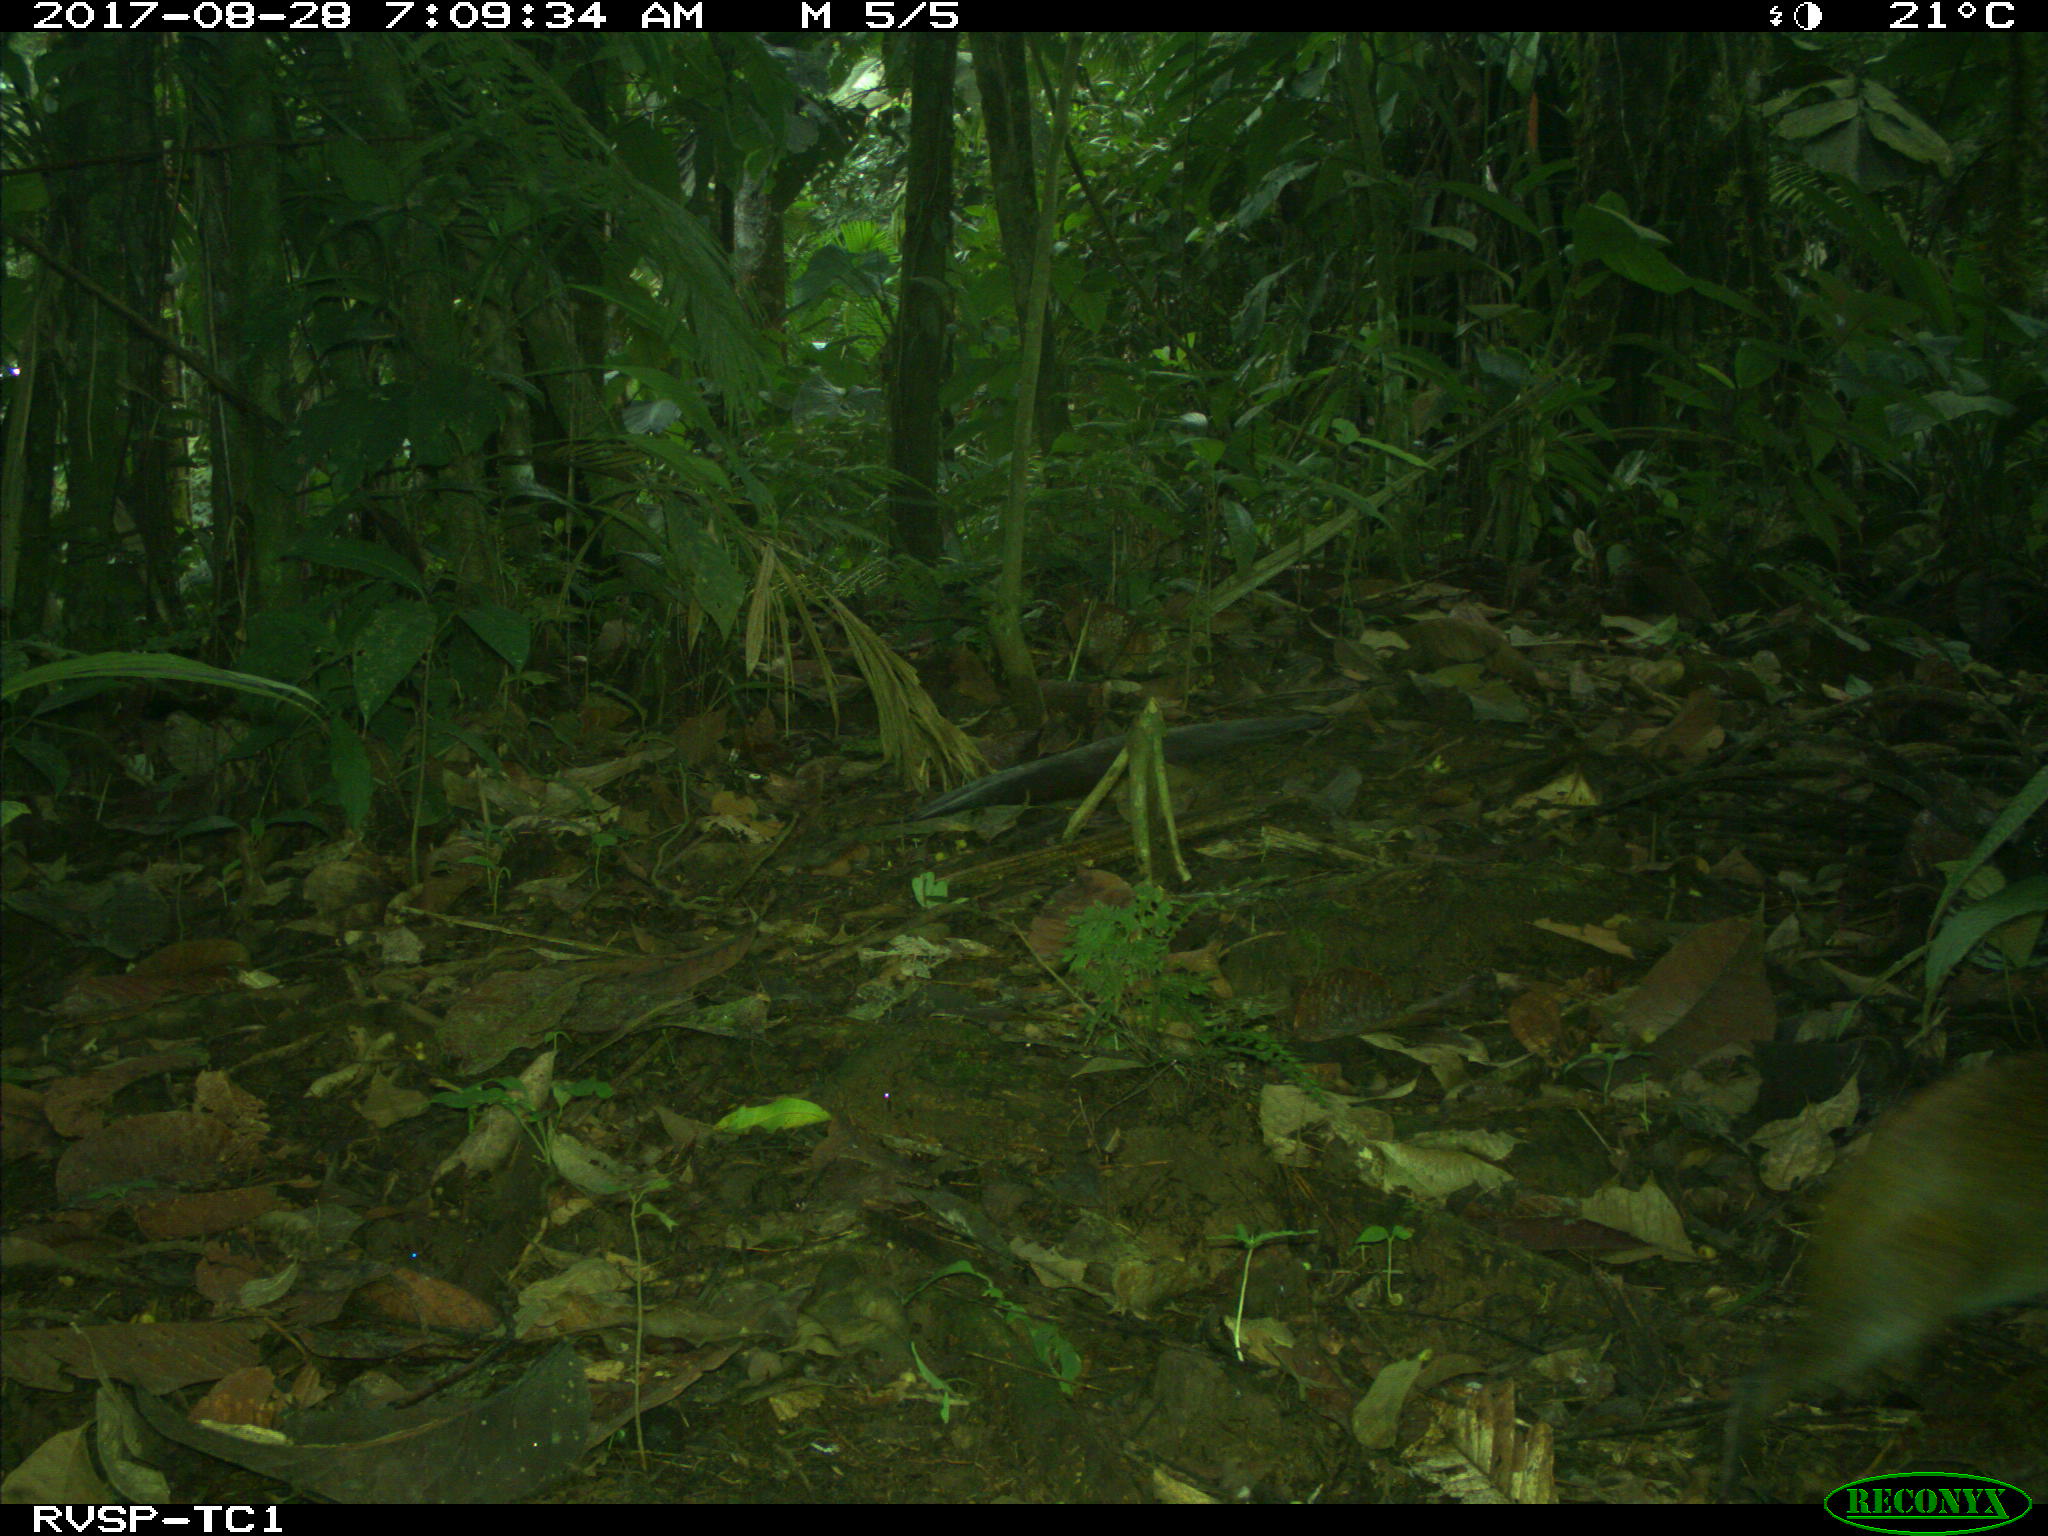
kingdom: Animalia
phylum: Chordata
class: Mammalia
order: Rodentia
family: Dasyproctidae
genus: Dasyprocta
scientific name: Dasyprocta punctata
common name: Central american agouti
